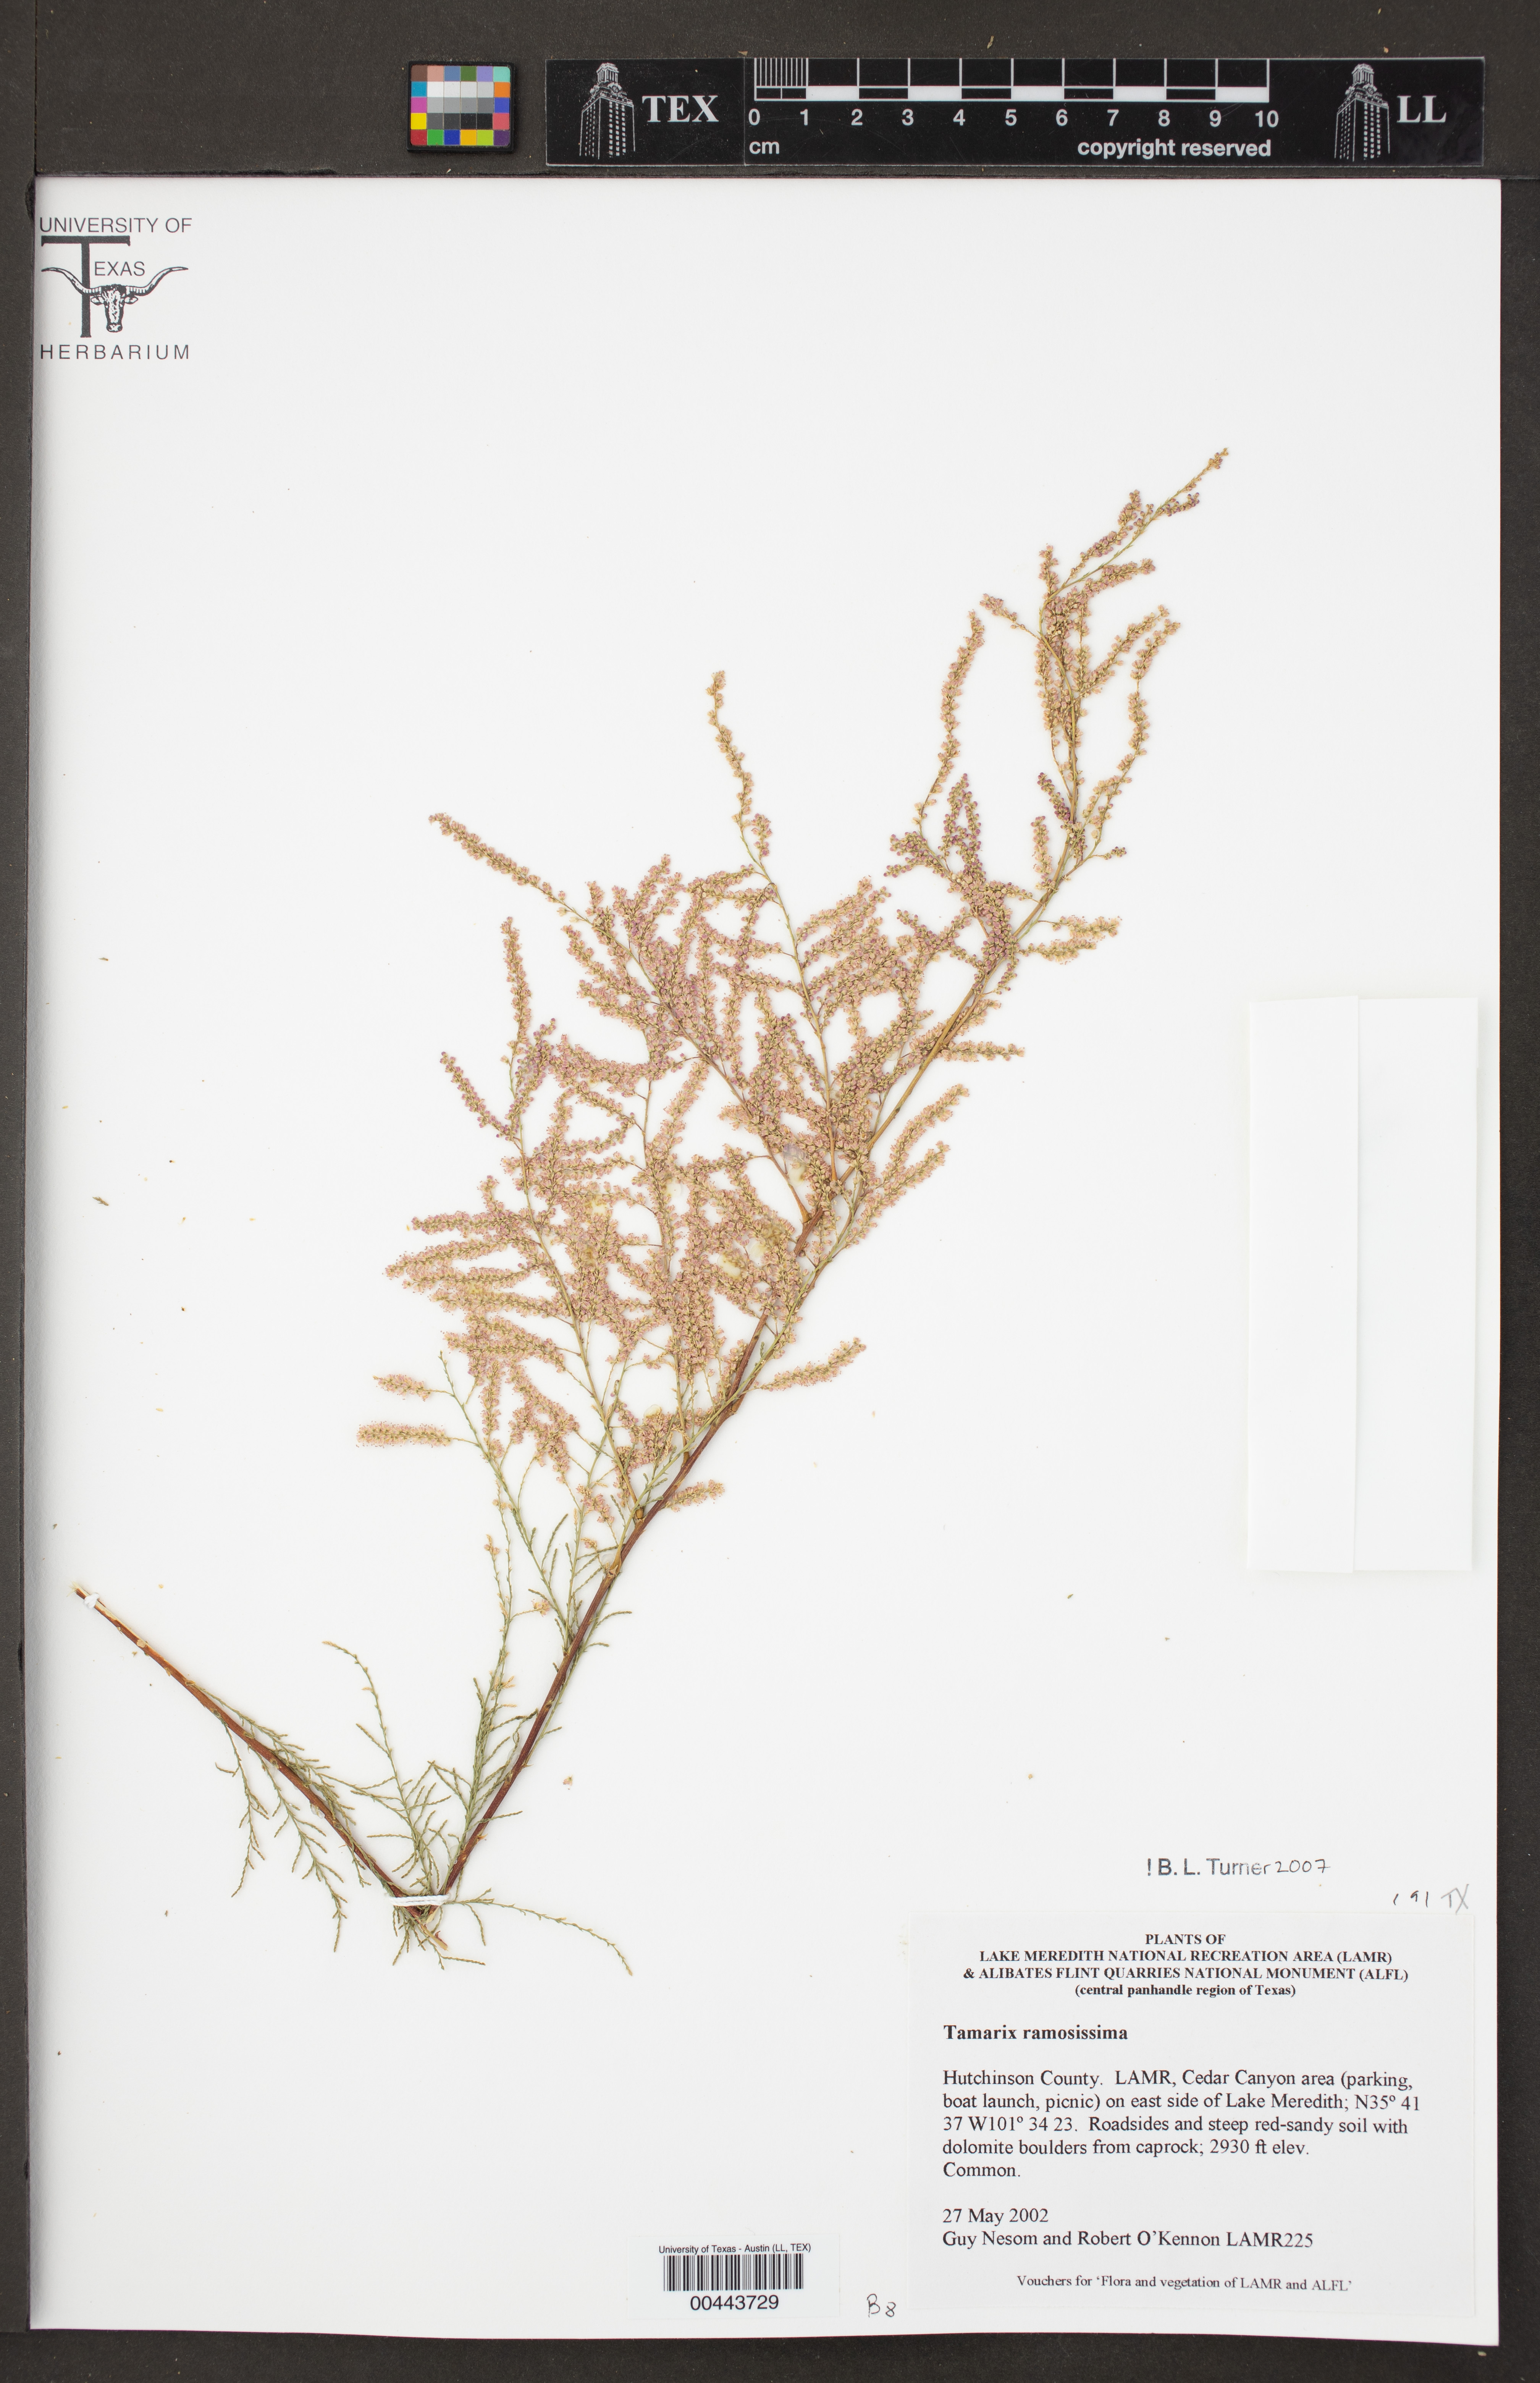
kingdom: Plantae
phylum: Tracheophyta
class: Magnoliopsida
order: Caryophyllales
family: Tamaricaceae
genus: Tamarix
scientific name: Tamarix ramosissima
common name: Pink tamarisk
